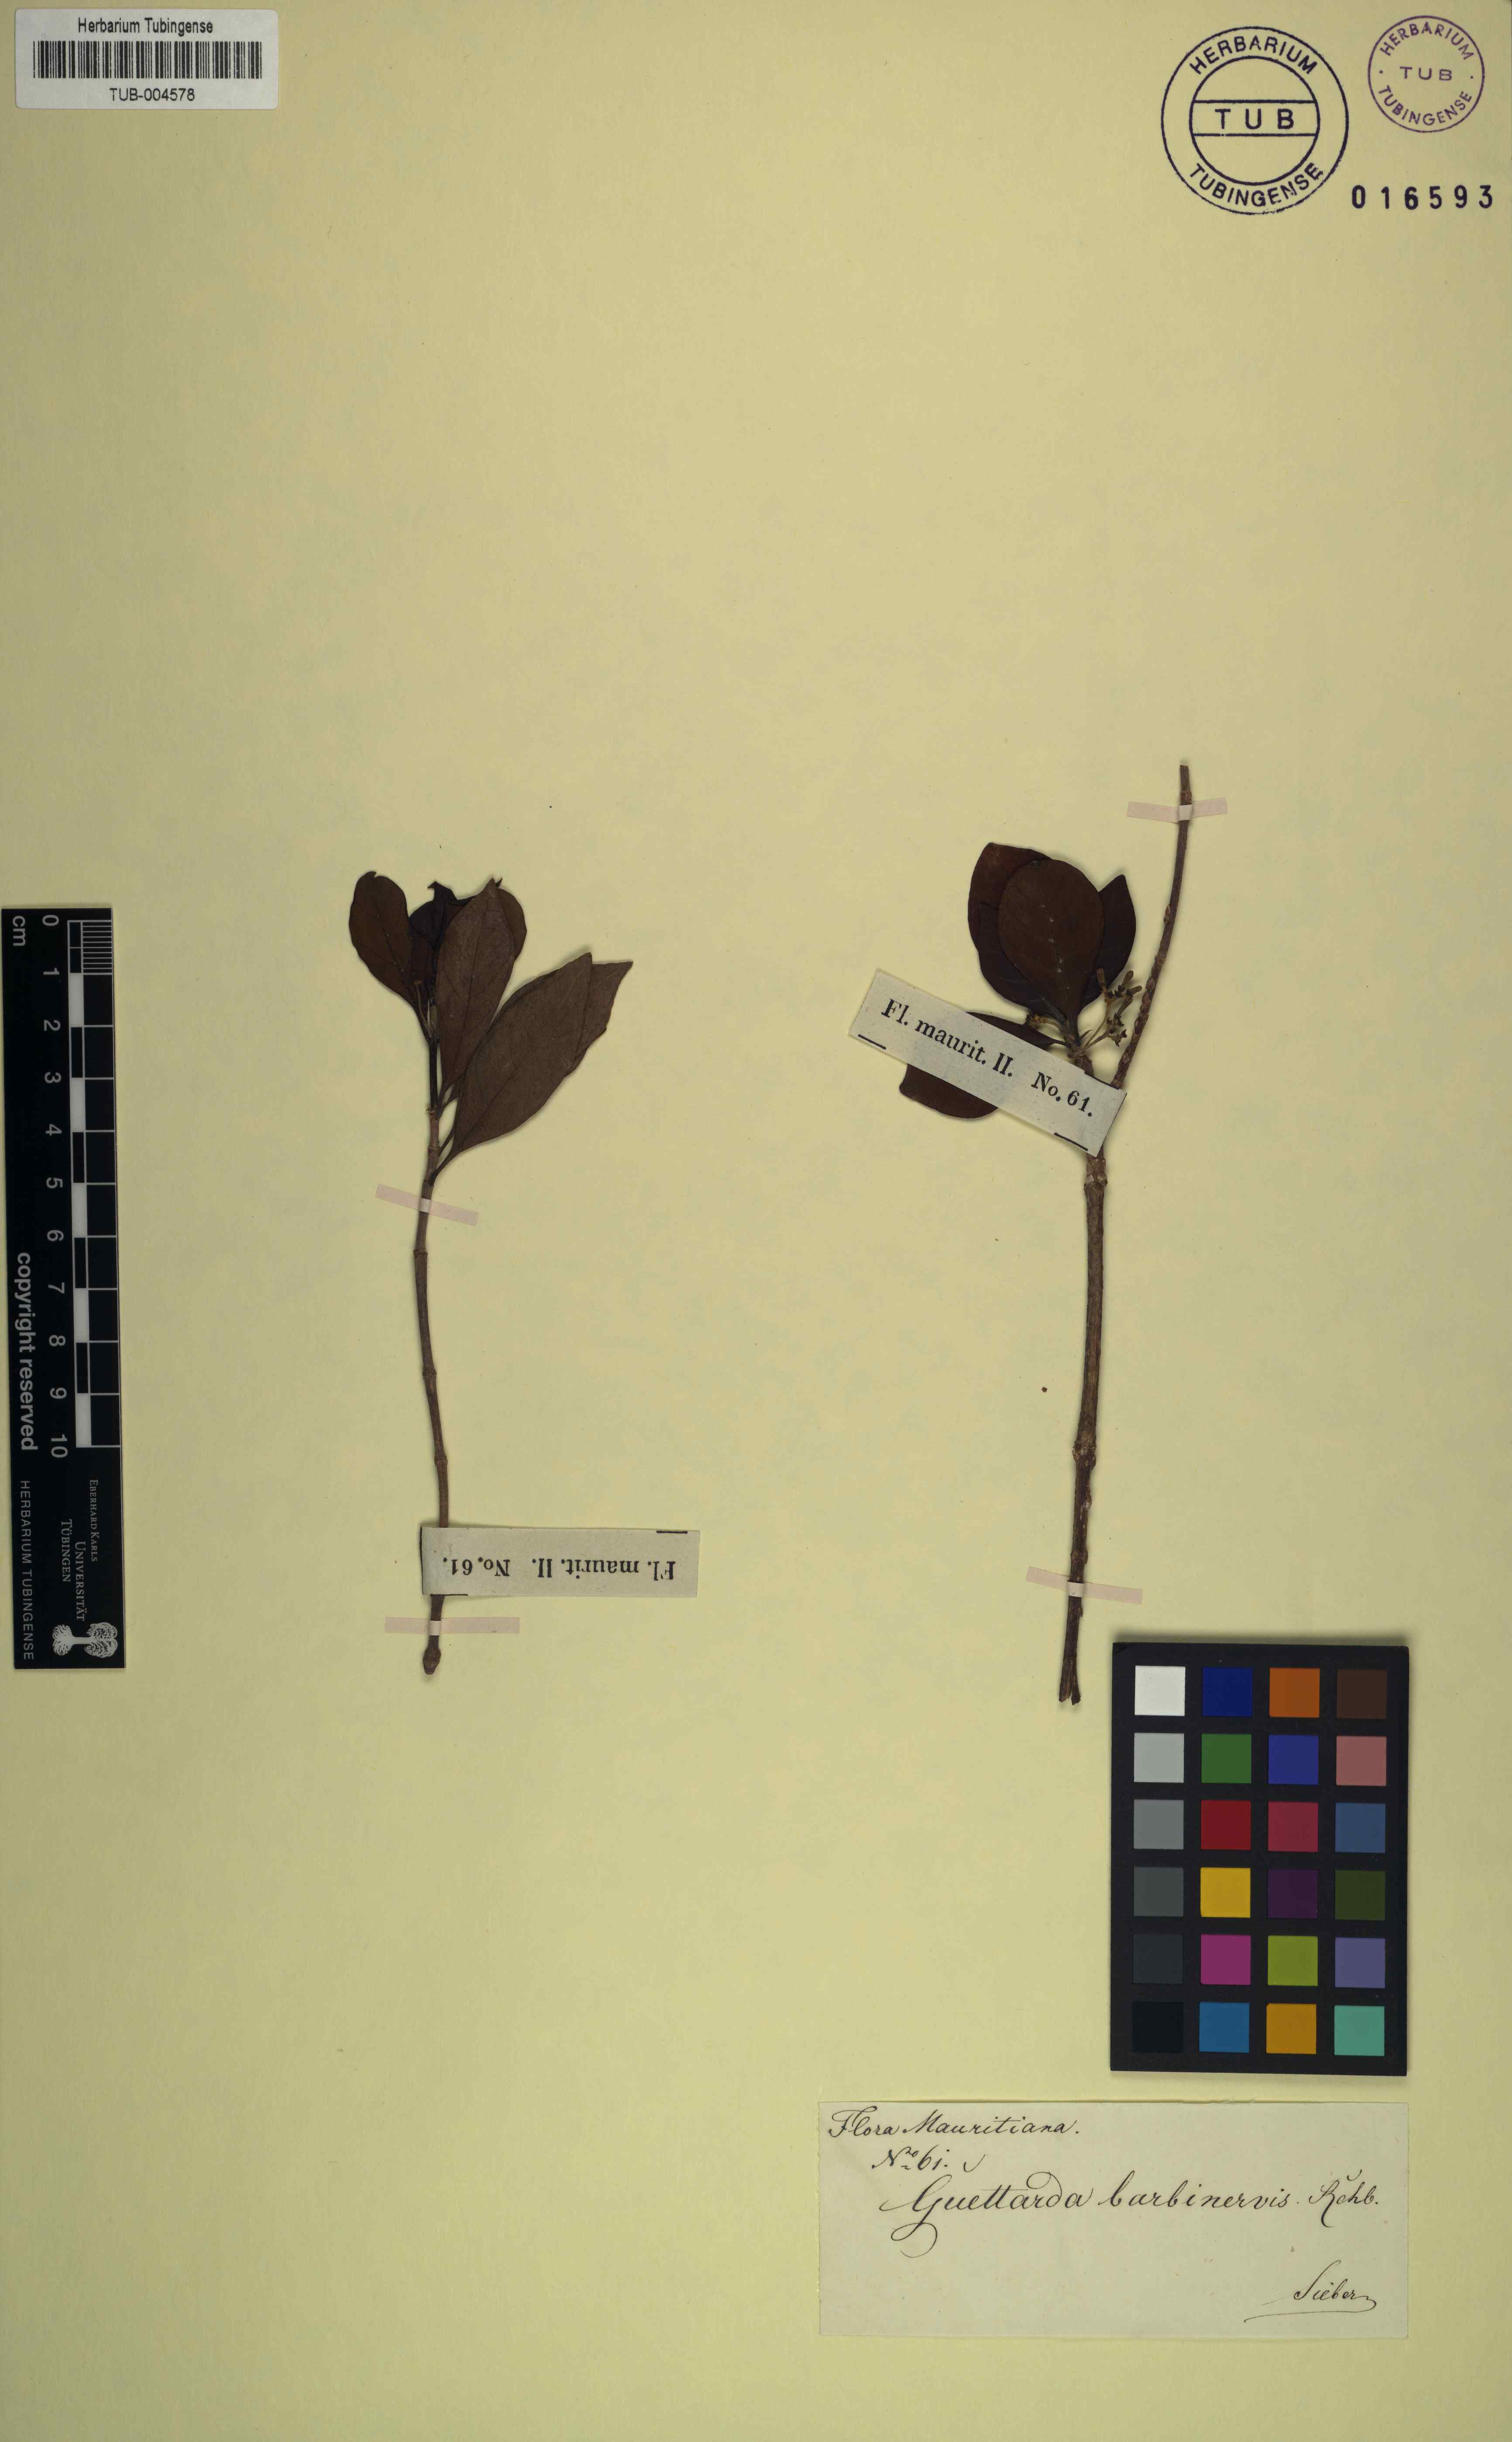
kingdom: Plantae
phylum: Tracheophyta
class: Magnoliopsida
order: Gentianales
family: Rubiaceae
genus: Antirhea
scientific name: Antirhea Antirrhoea borbonica
